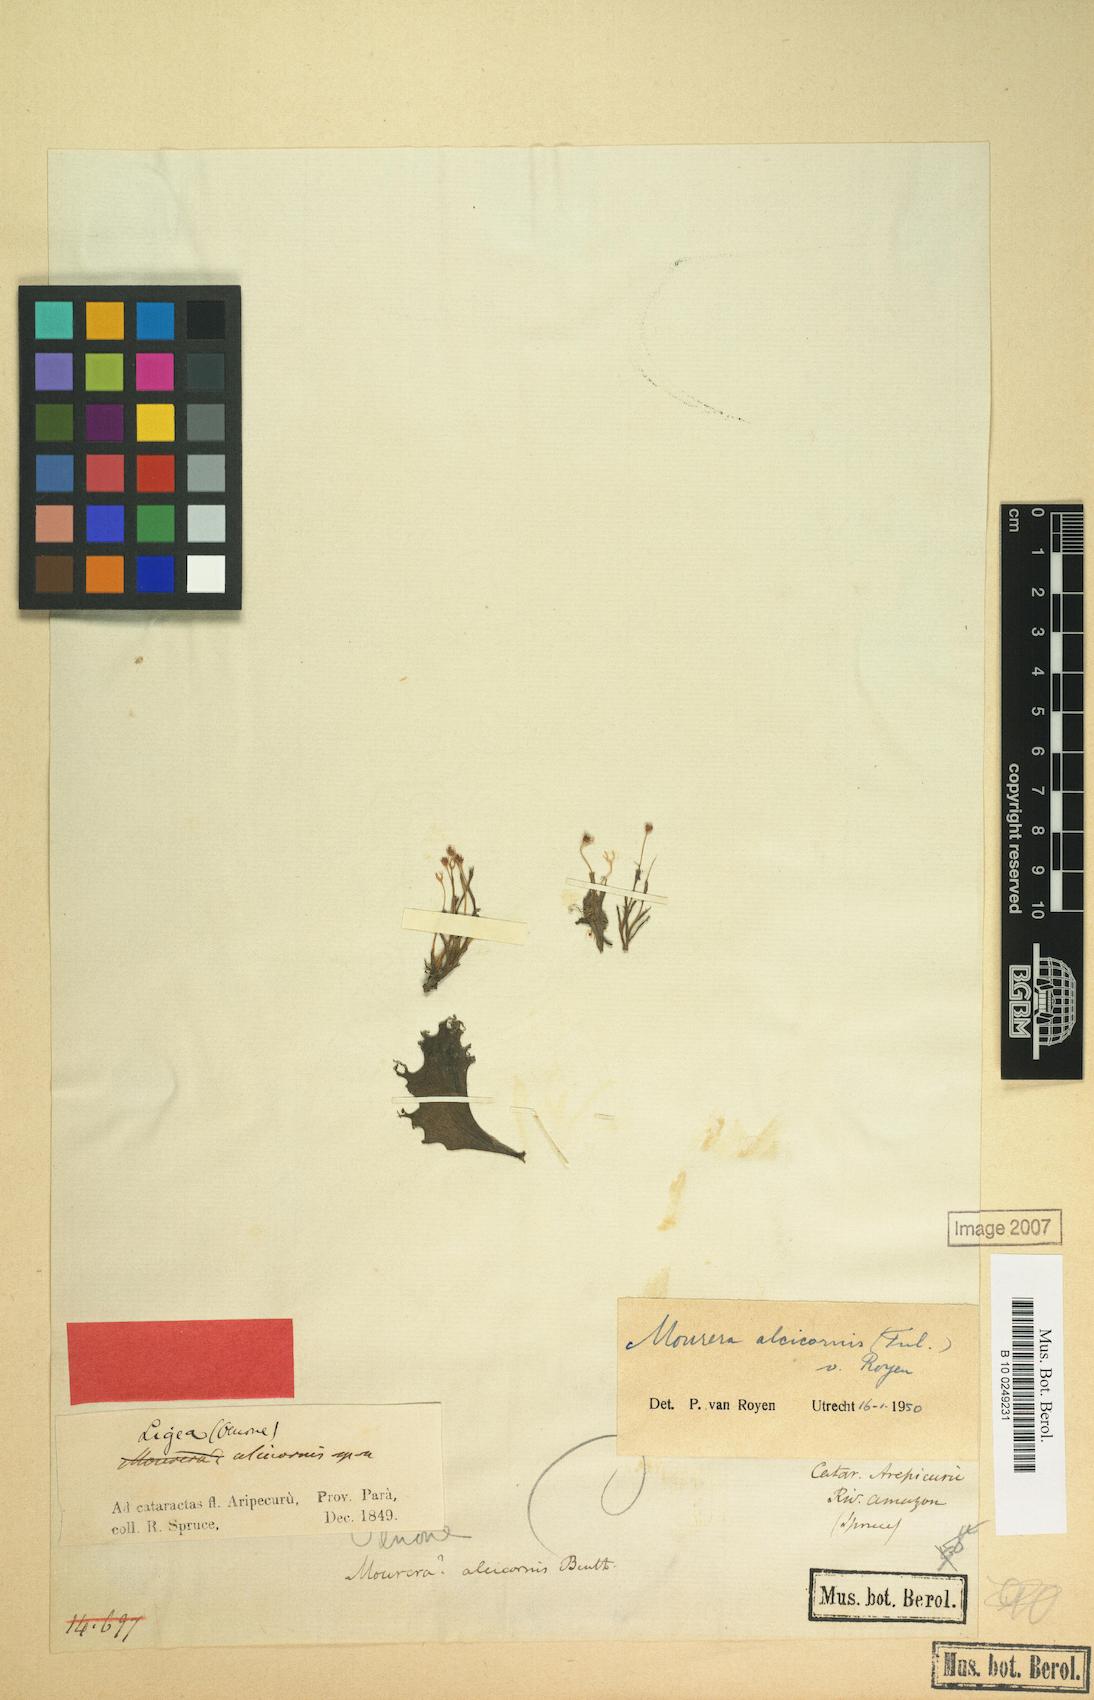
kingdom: Plantae
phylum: Tracheophyta
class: Magnoliopsida
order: Malpighiales
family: Podostemaceae
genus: Mourera
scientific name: Mourera alcicornis
